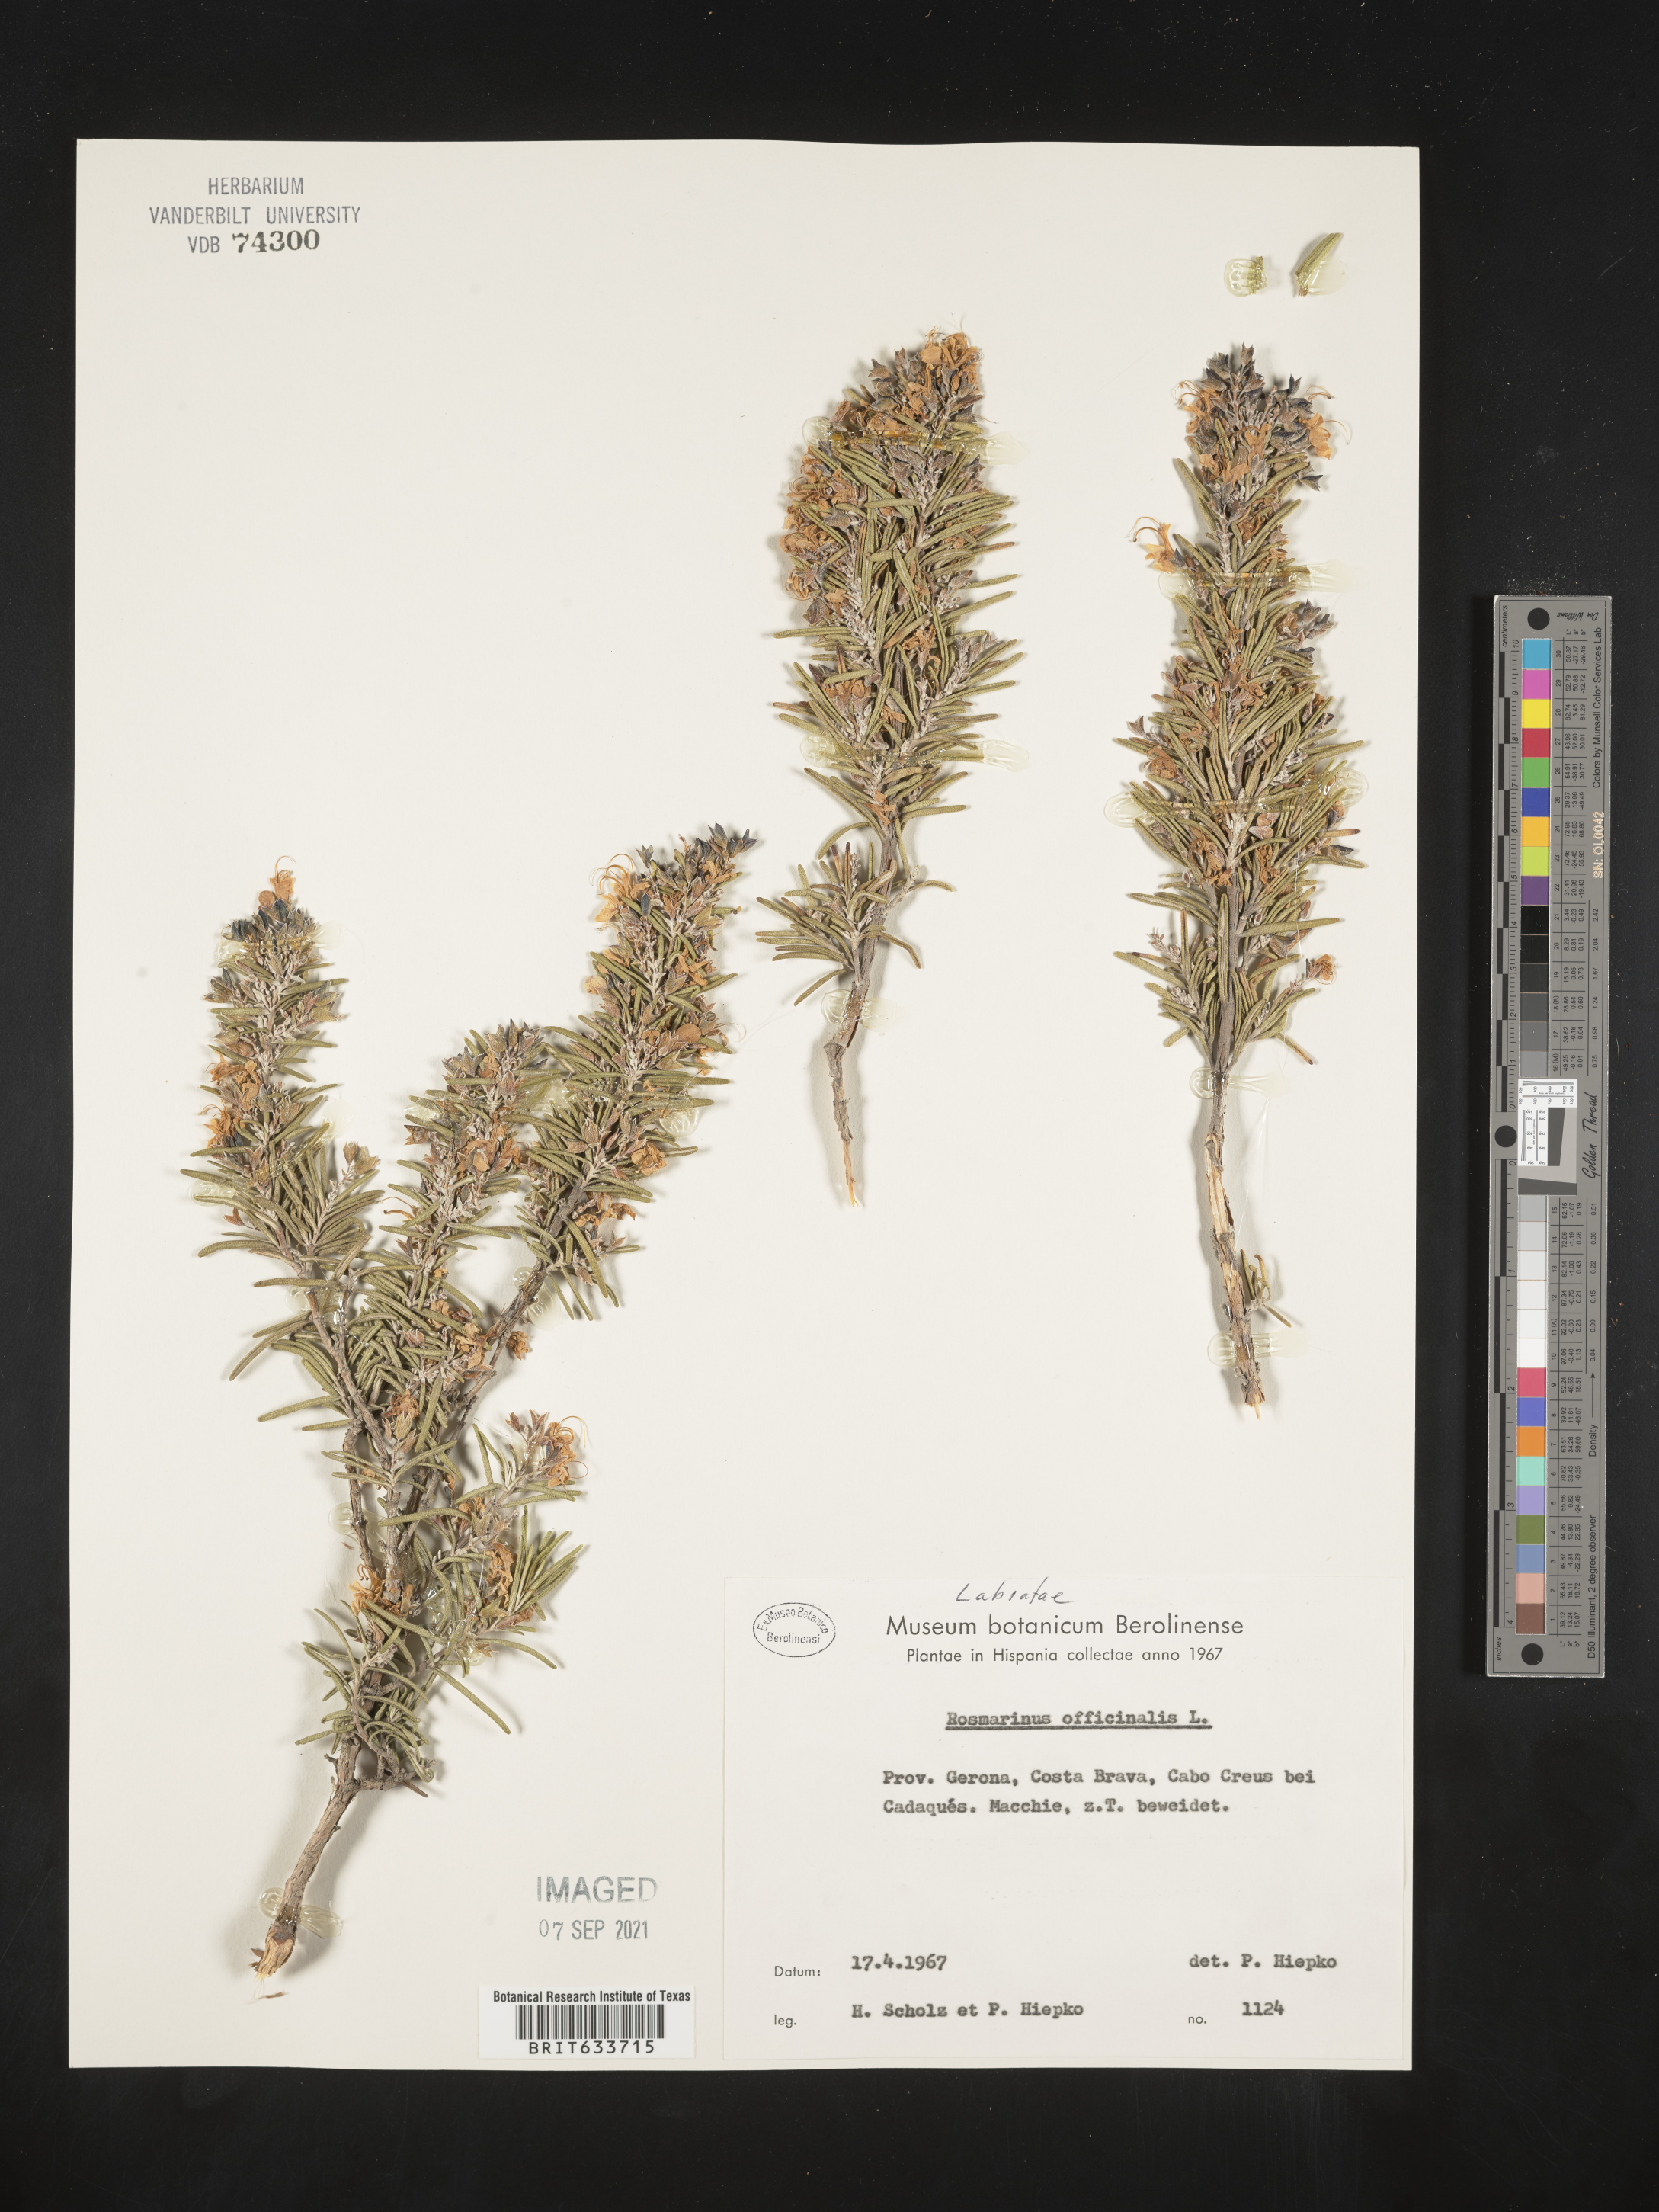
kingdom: Plantae
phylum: Tracheophyta
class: Magnoliopsida
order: Lamiales
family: Lamiaceae
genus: Salvia
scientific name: Salvia rosmarinus
